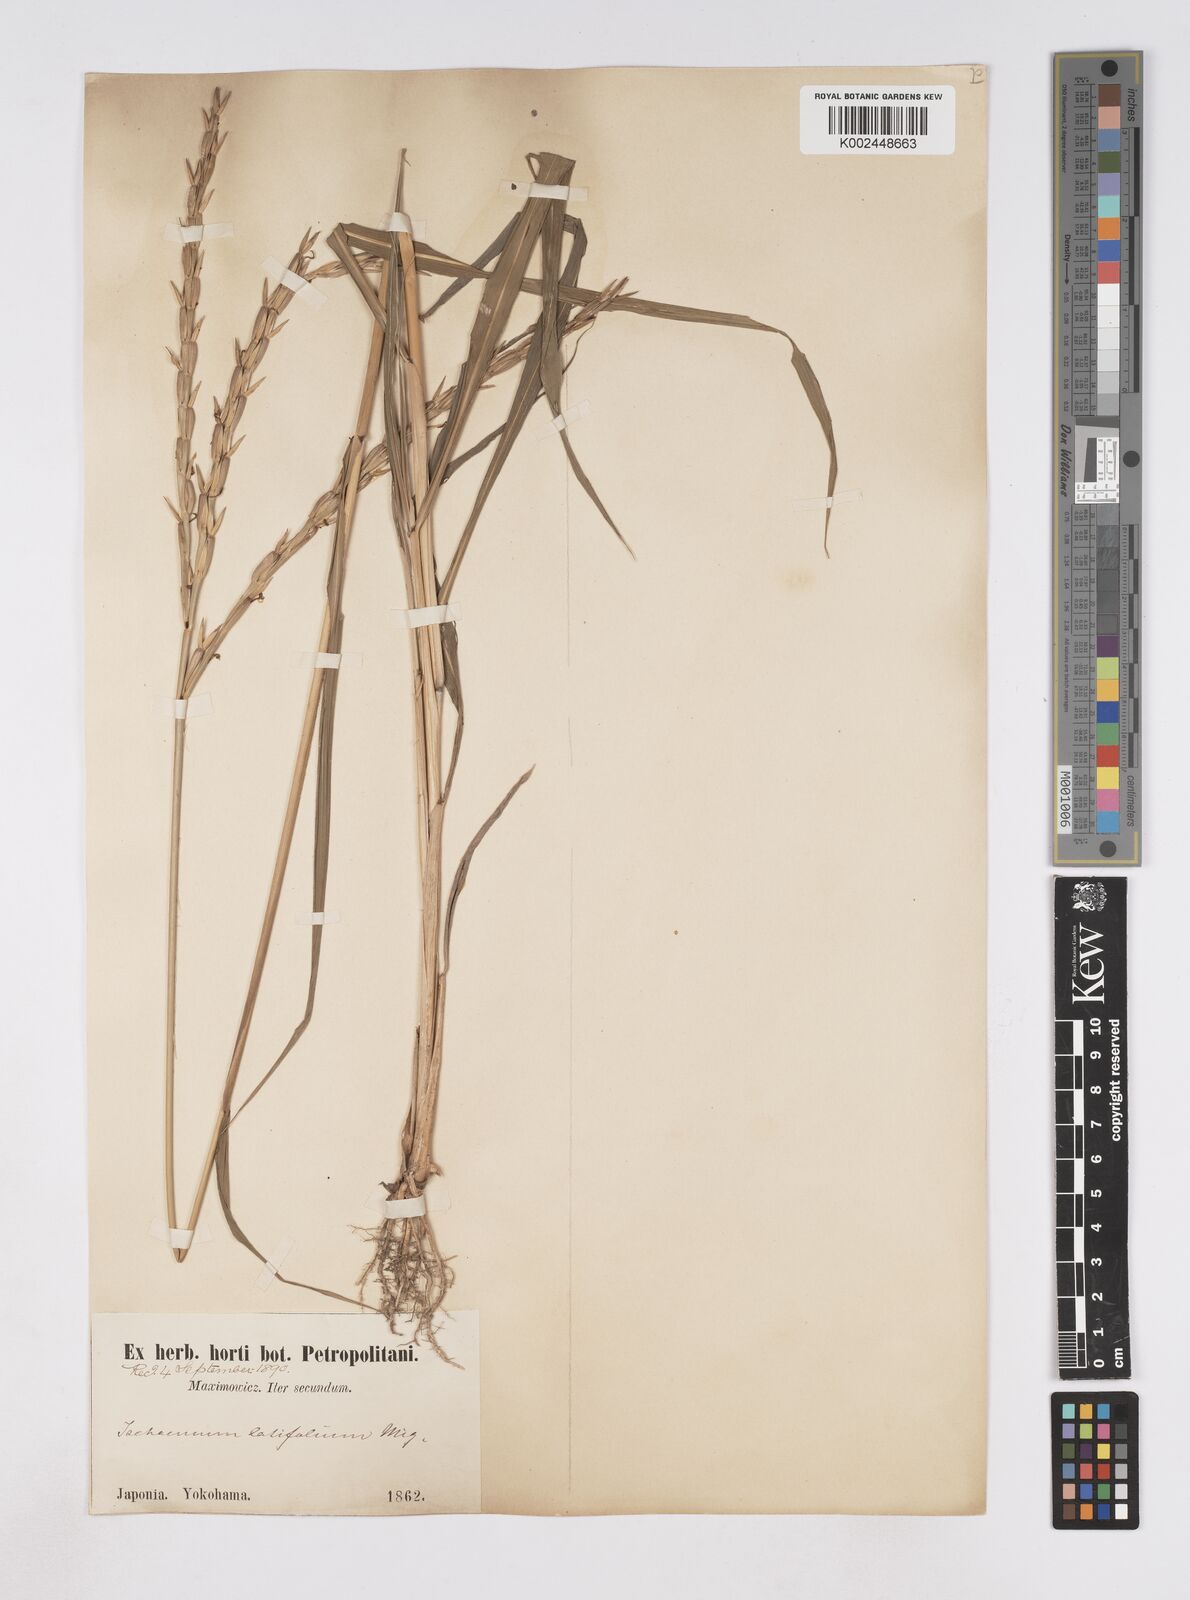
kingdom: Plantae
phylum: Tracheophyta
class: Liliopsida
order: Poales
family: Poaceae
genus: Phacelurus
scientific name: Phacelurus latifolius
